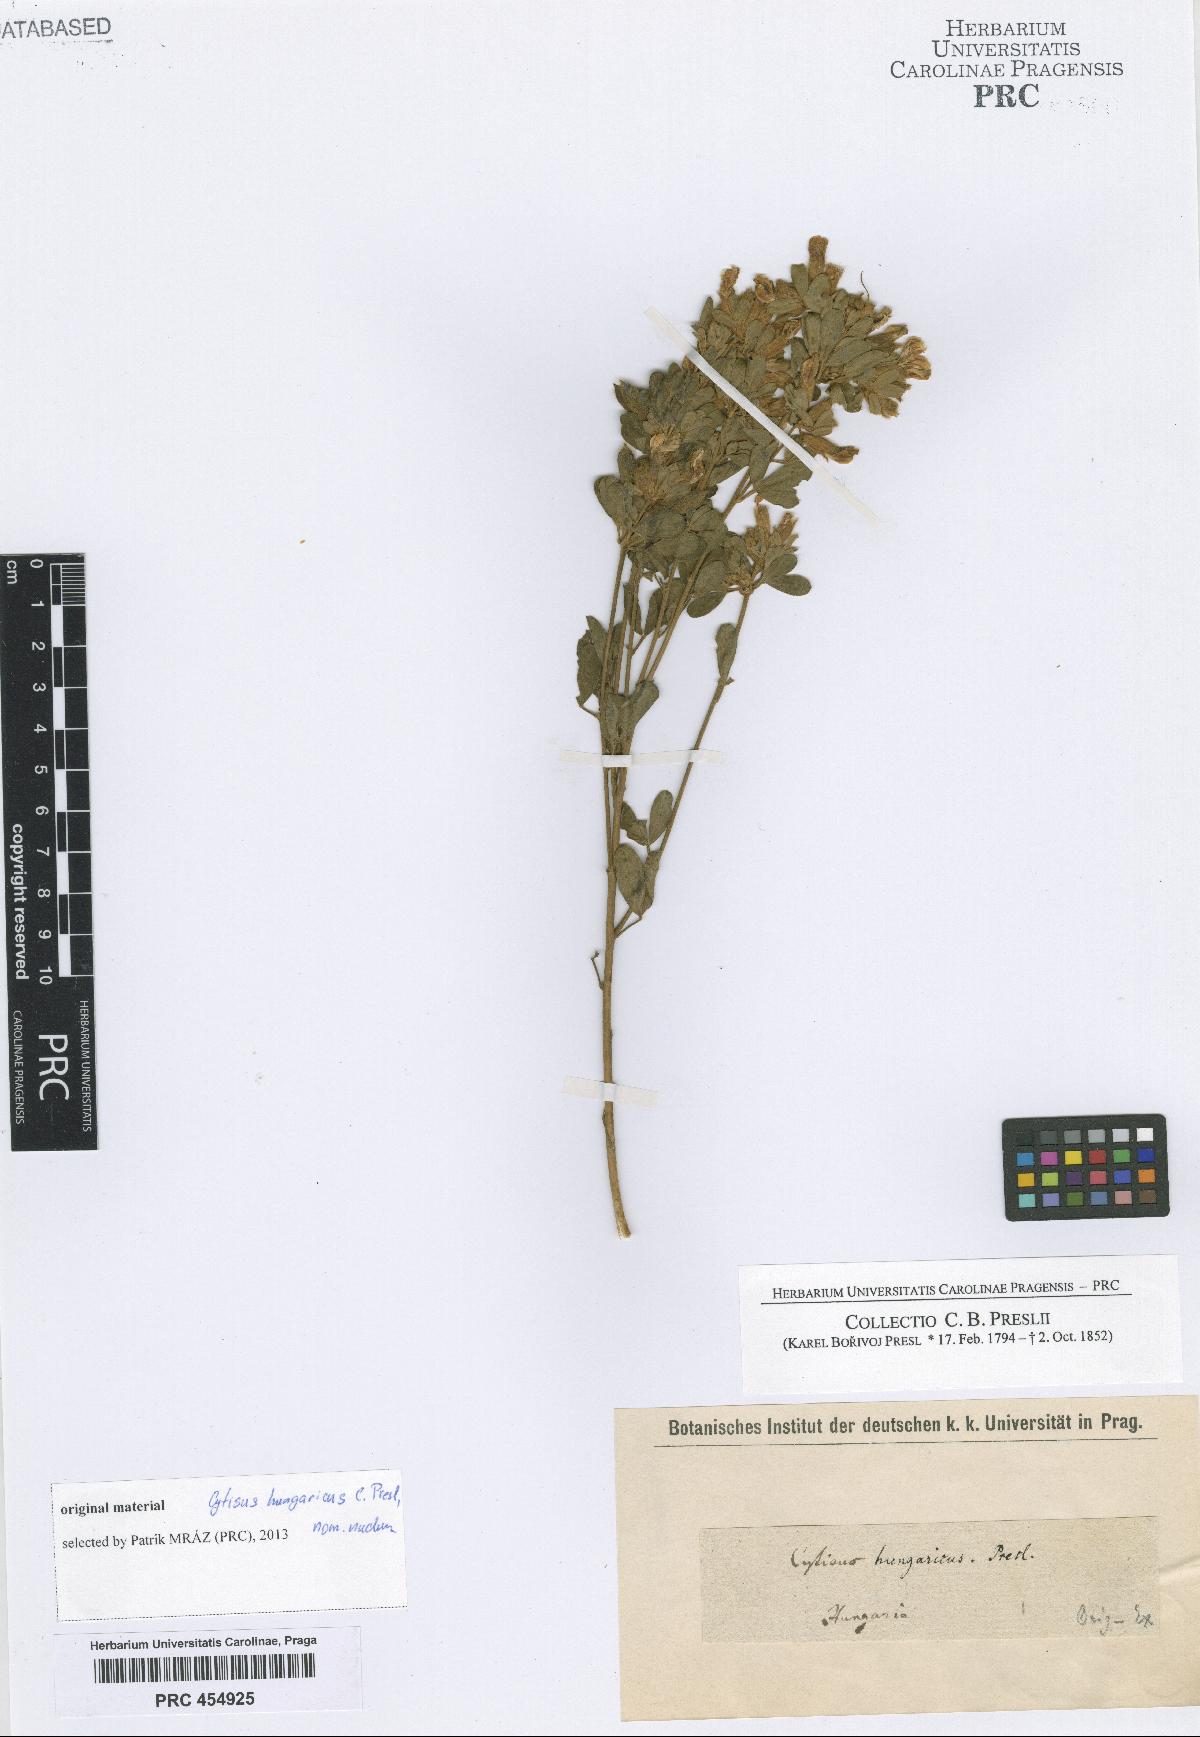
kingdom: Plantae
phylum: Tracheophyta
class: Magnoliopsida
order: Fabales
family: Fabaceae
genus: Cytisus
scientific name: Cytisus
